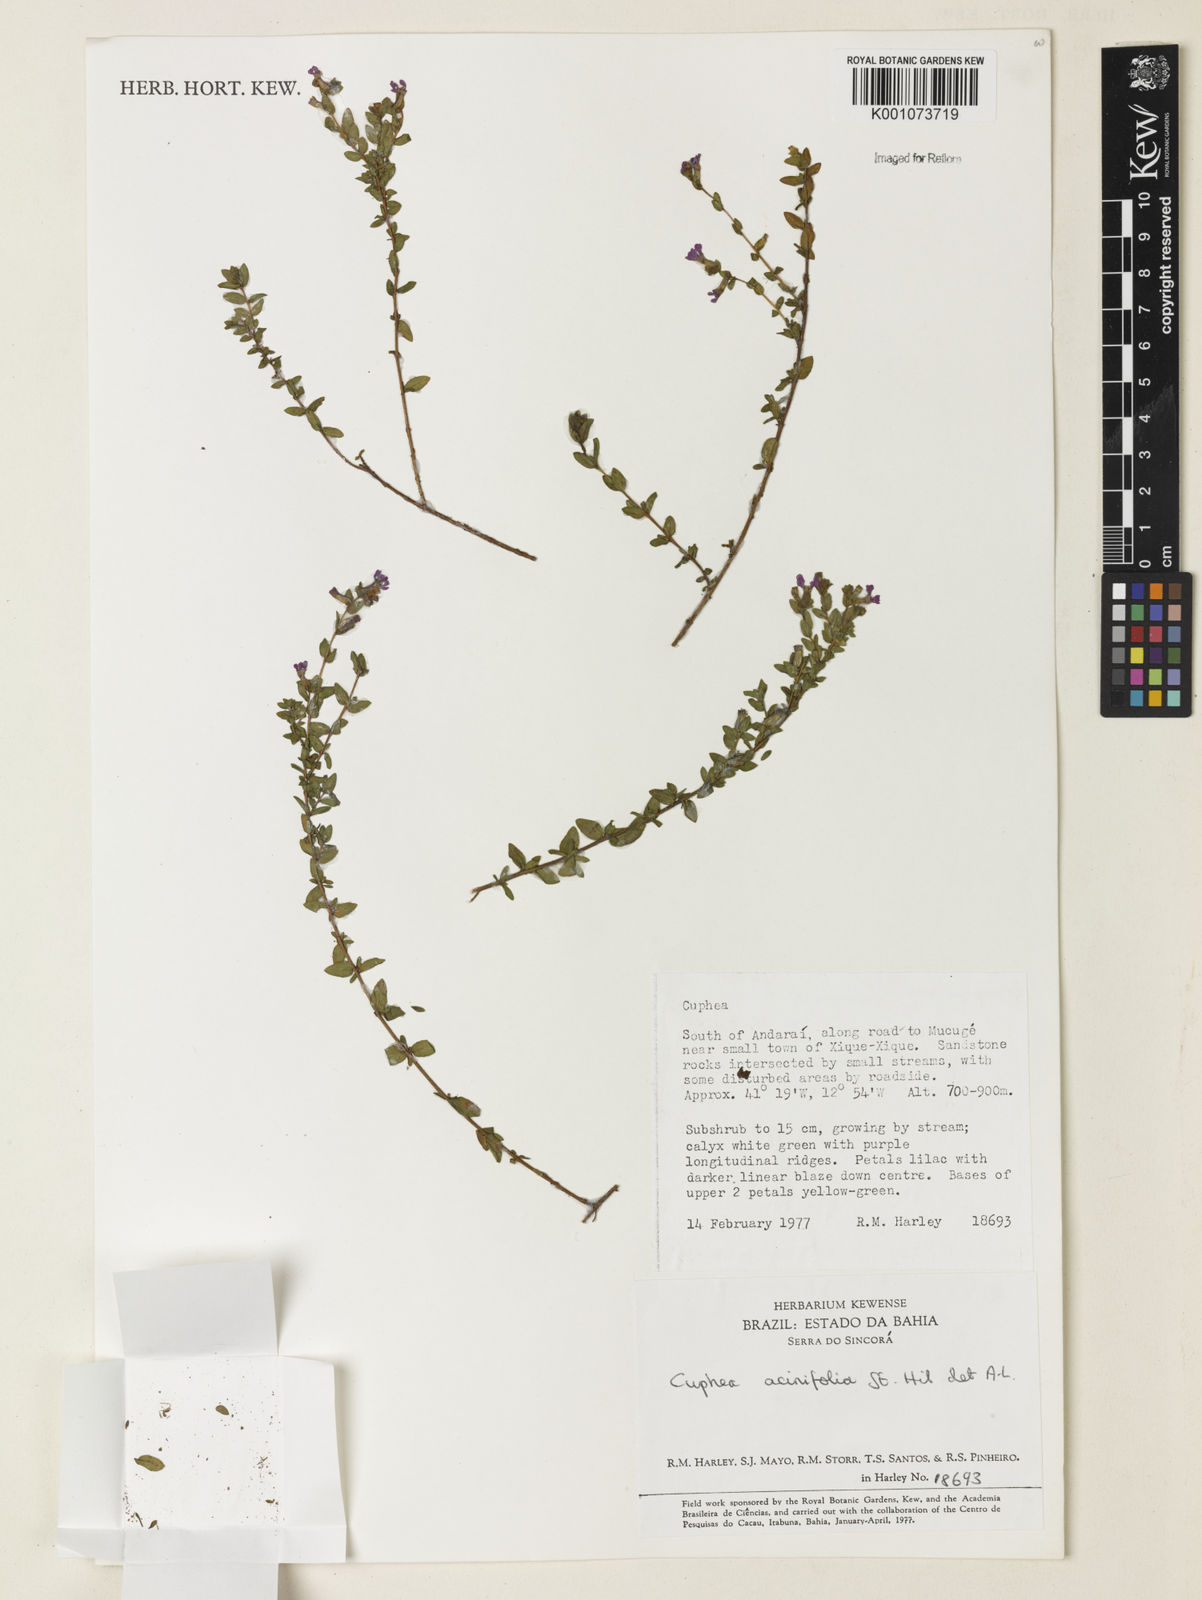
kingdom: Plantae
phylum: Tracheophyta
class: Magnoliopsida
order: Myrtales
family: Lythraceae
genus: Cuphea
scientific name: Cuphea acinifolia
